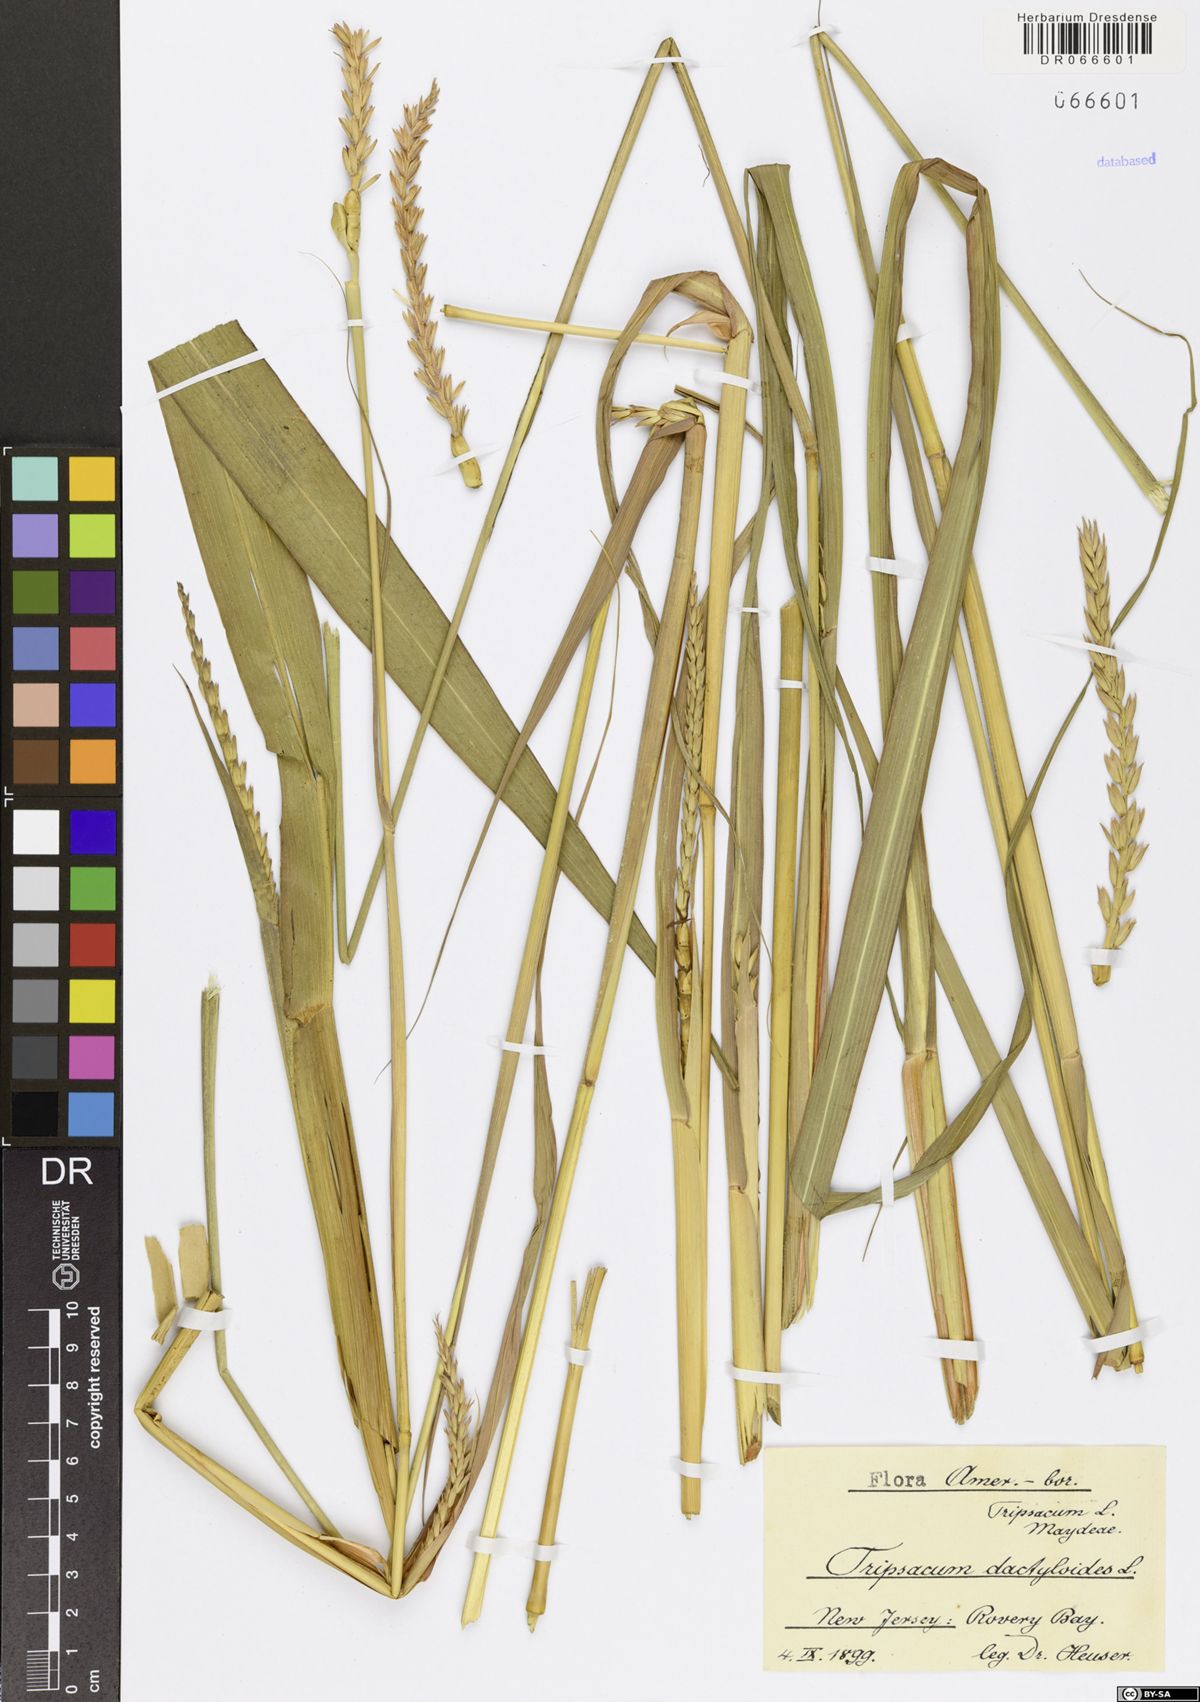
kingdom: Plantae
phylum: Tracheophyta
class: Liliopsida
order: Poales
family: Poaceae
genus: Tripsacum
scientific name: Tripsacum dactyloides
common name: Buffalo-grass
